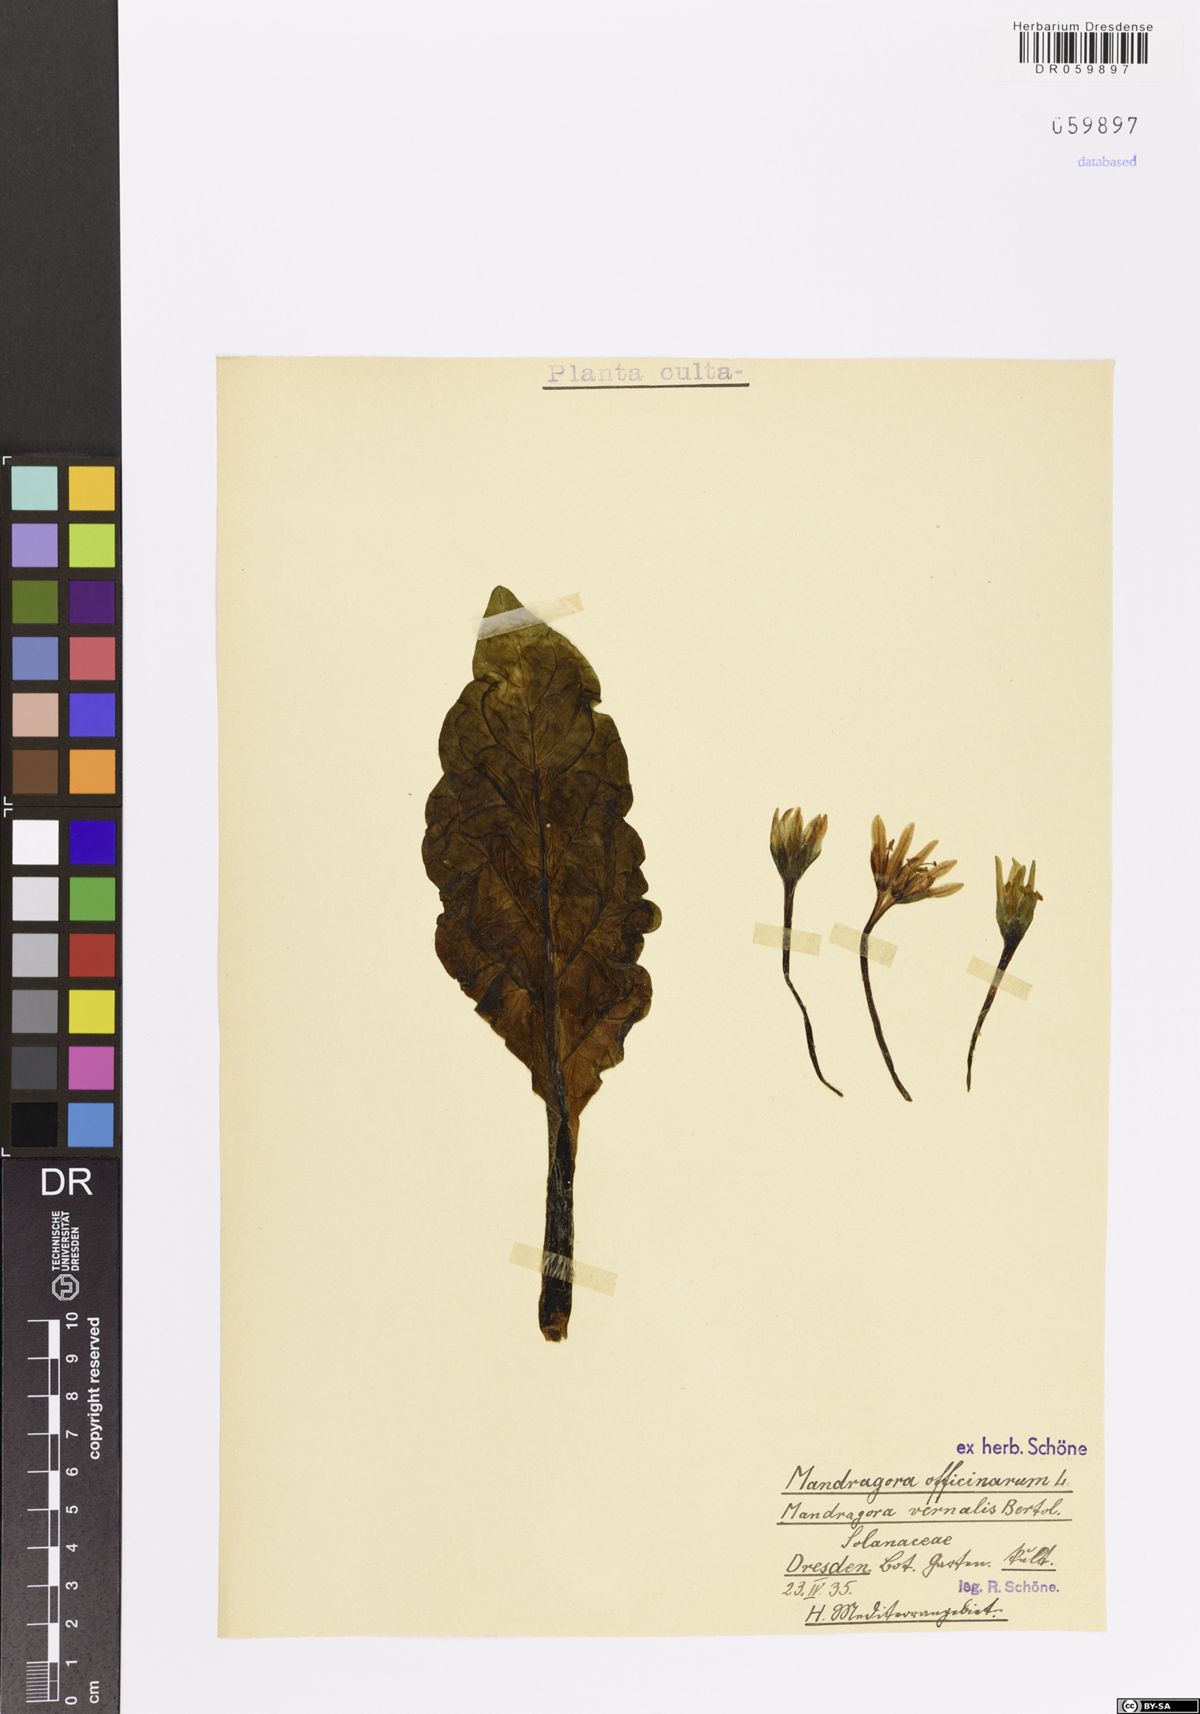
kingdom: Plantae
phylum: Tracheophyta
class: Magnoliopsida
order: Solanales
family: Solanaceae
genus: Mandragora
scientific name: Mandragora officinarum
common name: Mandrake
